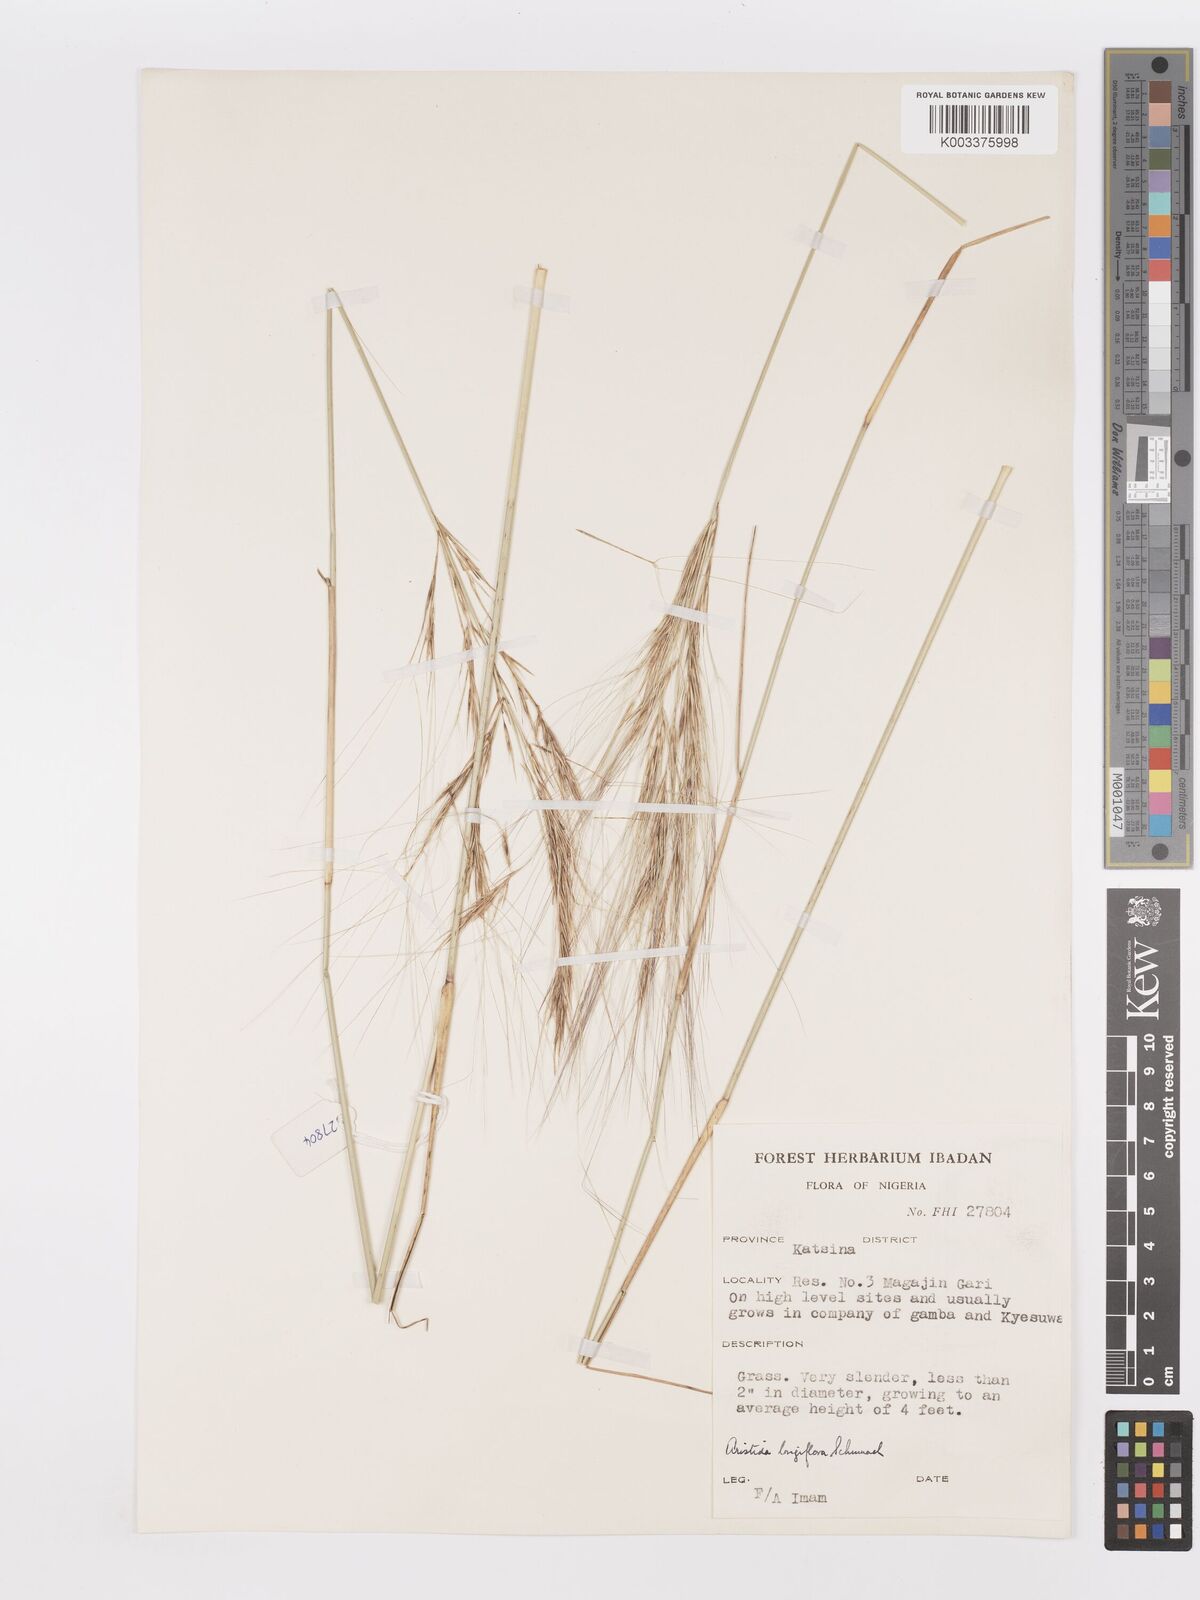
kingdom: Plantae
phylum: Tracheophyta
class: Liliopsida
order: Poales
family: Poaceae
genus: Aristida
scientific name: Aristida sieberiana
